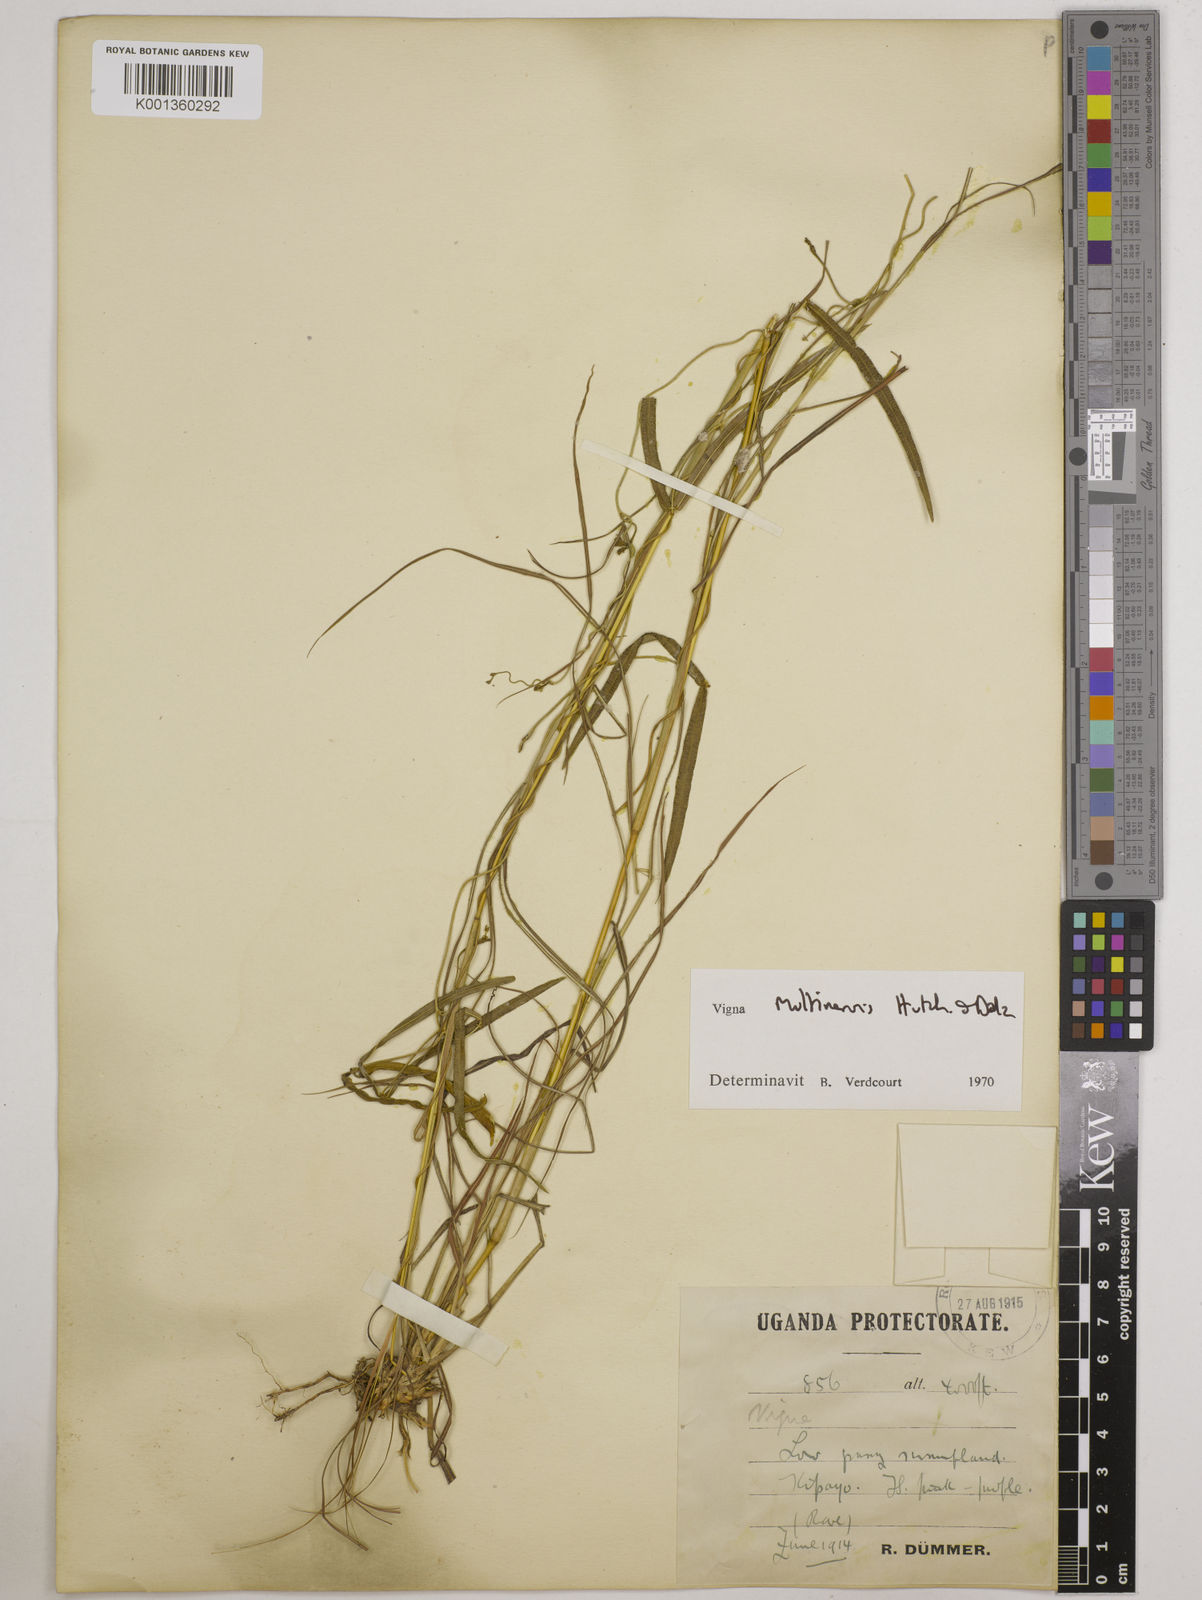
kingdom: Plantae
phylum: Tracheophyta
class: Magnoliopsida
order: Fabales
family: Fabaceae
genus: Vigna
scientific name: Vigna multinervis
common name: Fula-pulaar
